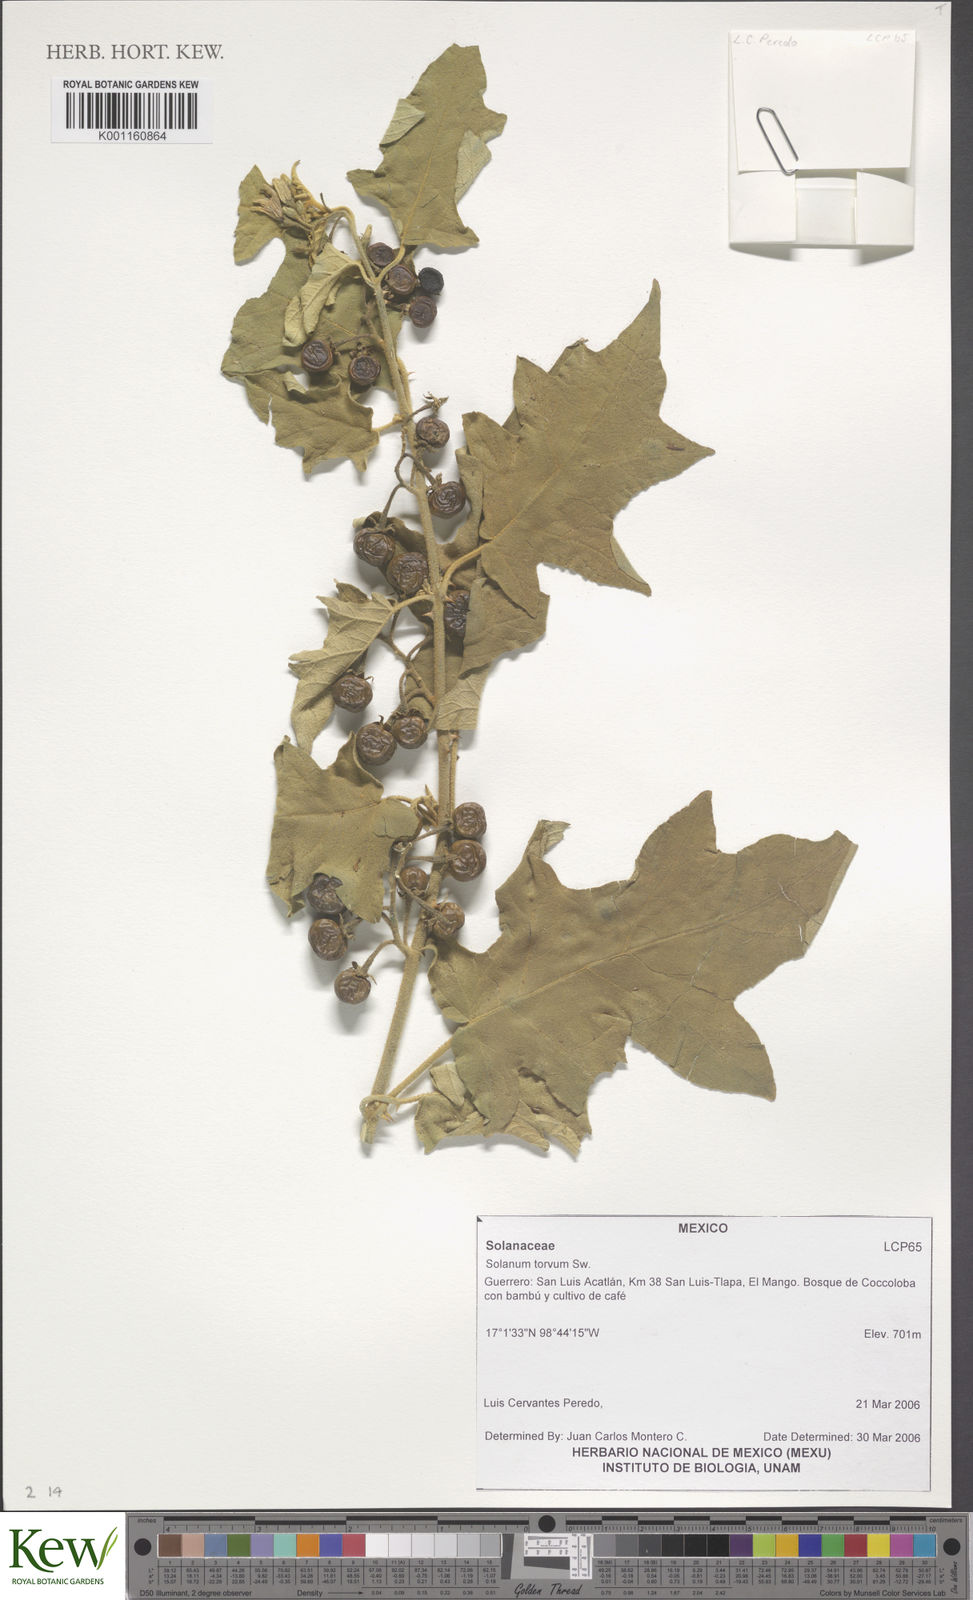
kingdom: Plantae
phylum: Tracheophyta
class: Magnoliopsida
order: Solanales
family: Solanaceae
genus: Solanum
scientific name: Solanum torvum
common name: Turkey berry
